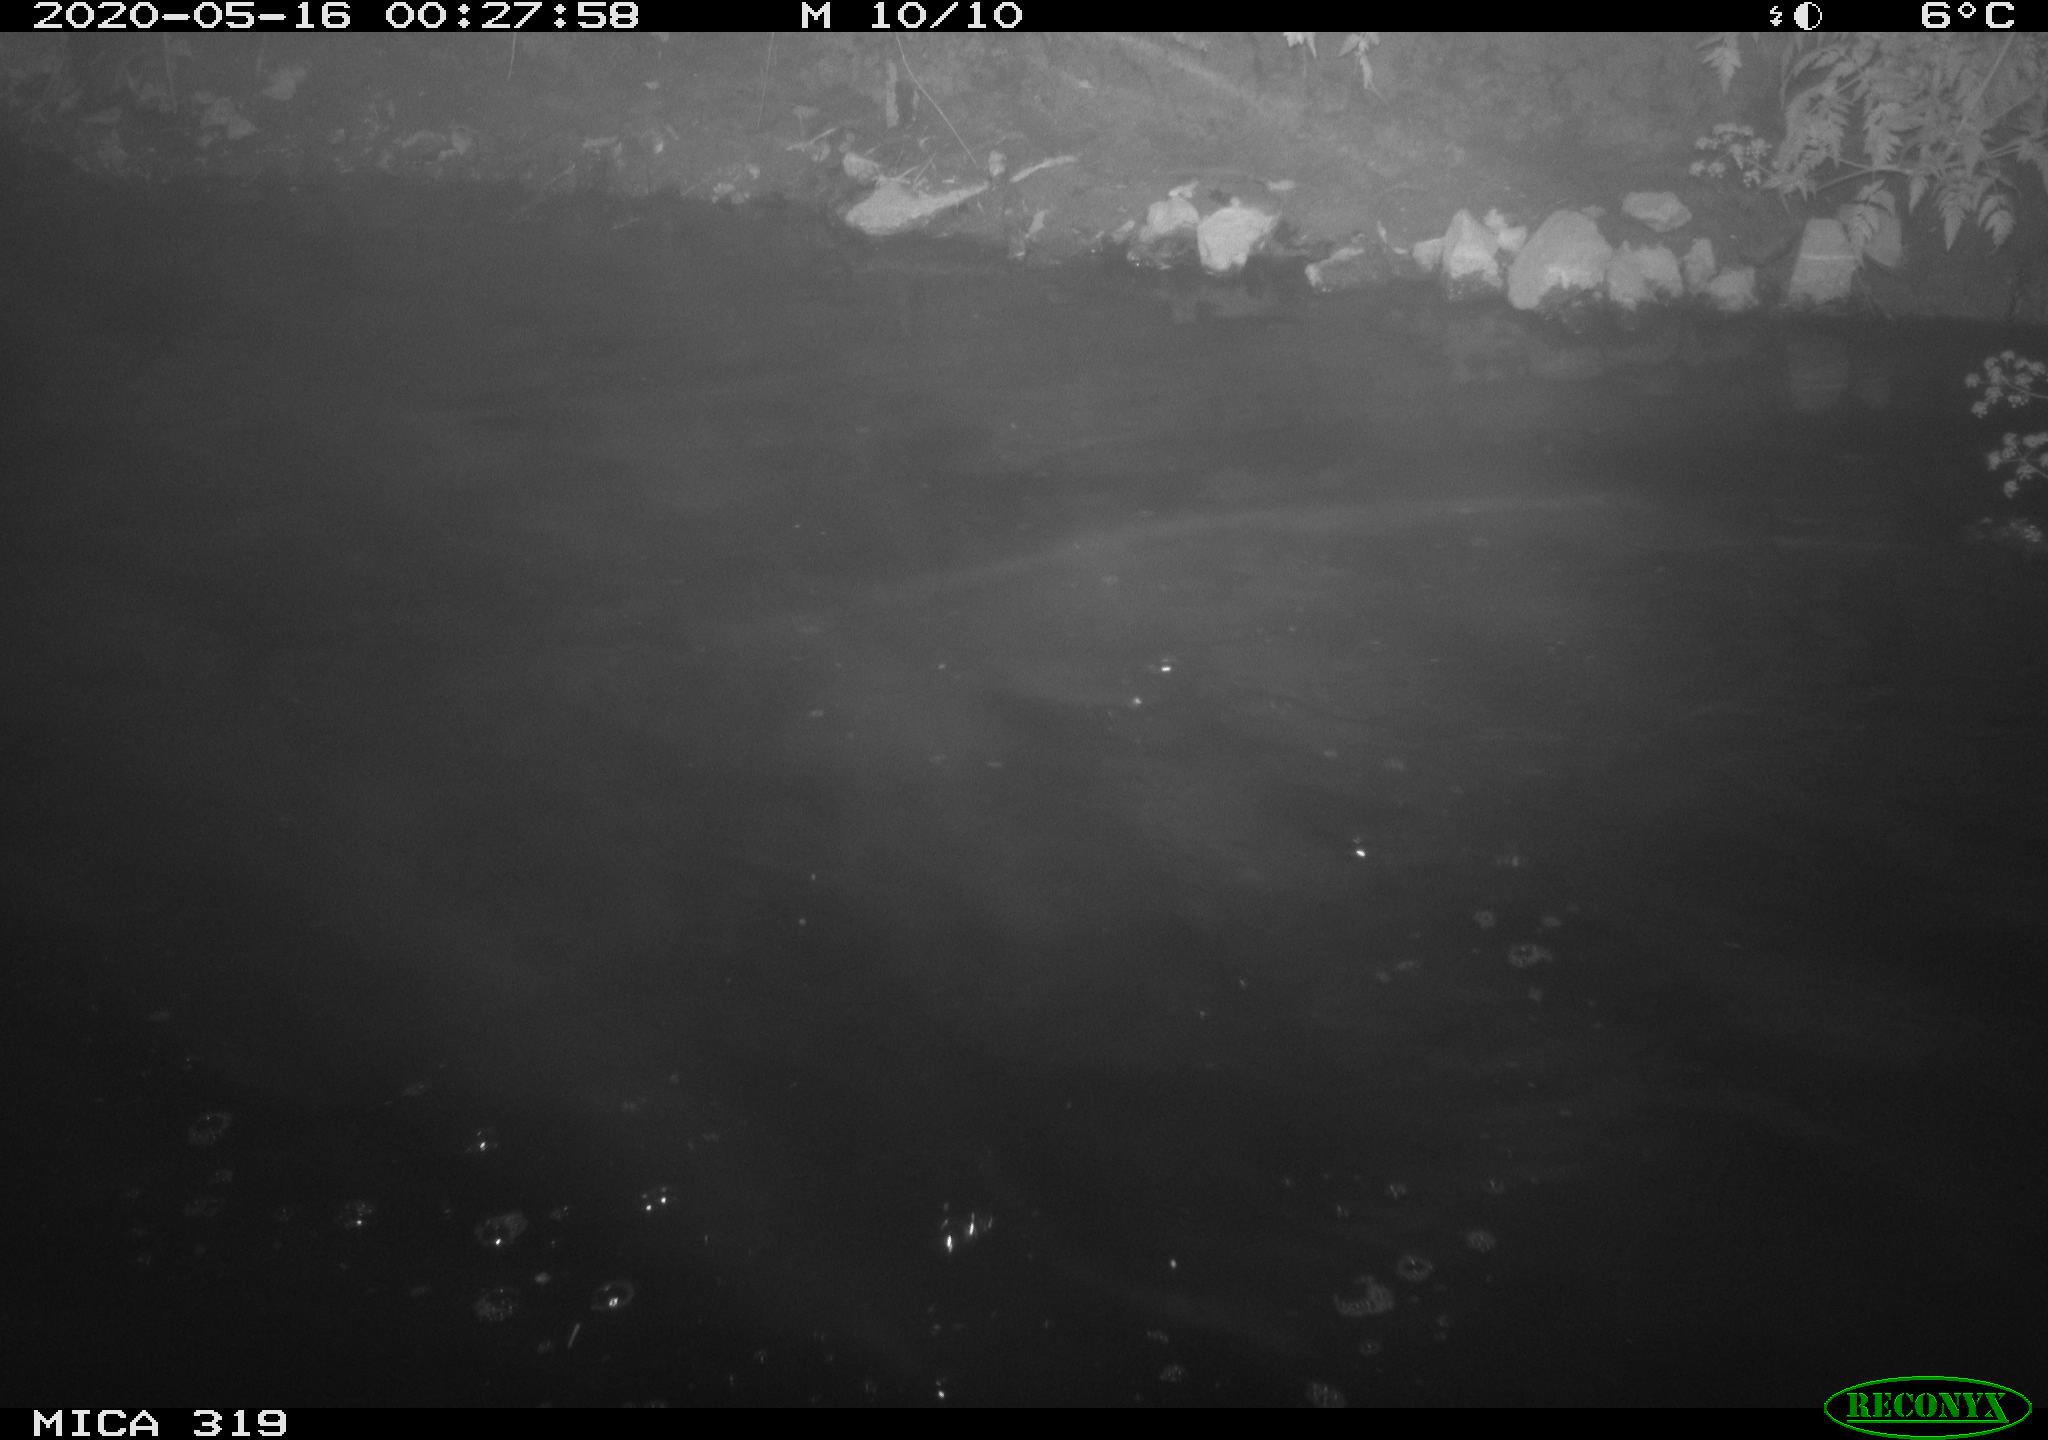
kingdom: Animalia
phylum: Chordata
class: Aves
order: Anseriformes
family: Anatidae
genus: Anas
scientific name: Anas platyrhynchos
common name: Mallard
